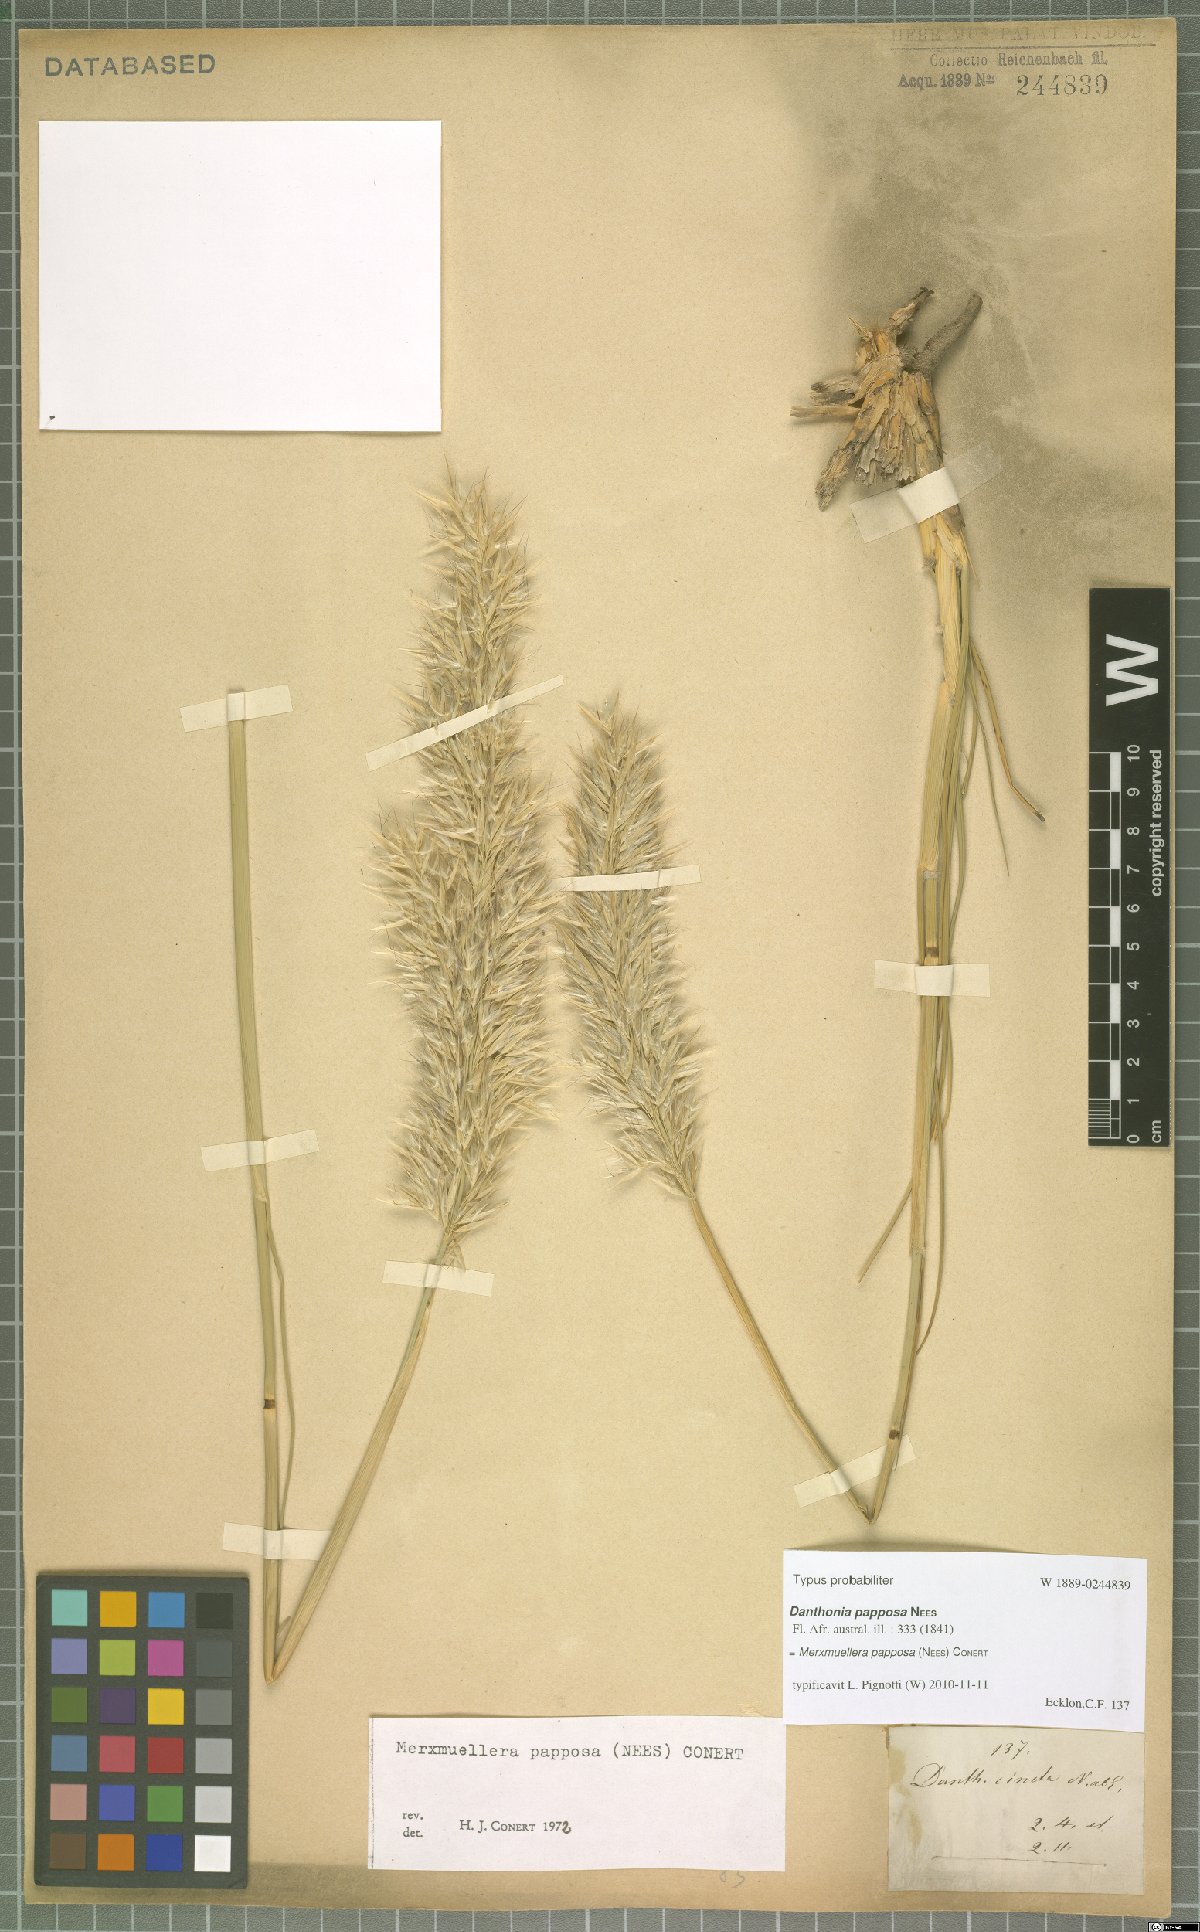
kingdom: Plantae
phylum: Tracheophyta
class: Liliopsida
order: Poales
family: Poaceae
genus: Ellisochloa
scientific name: Ellisochloa papposa
